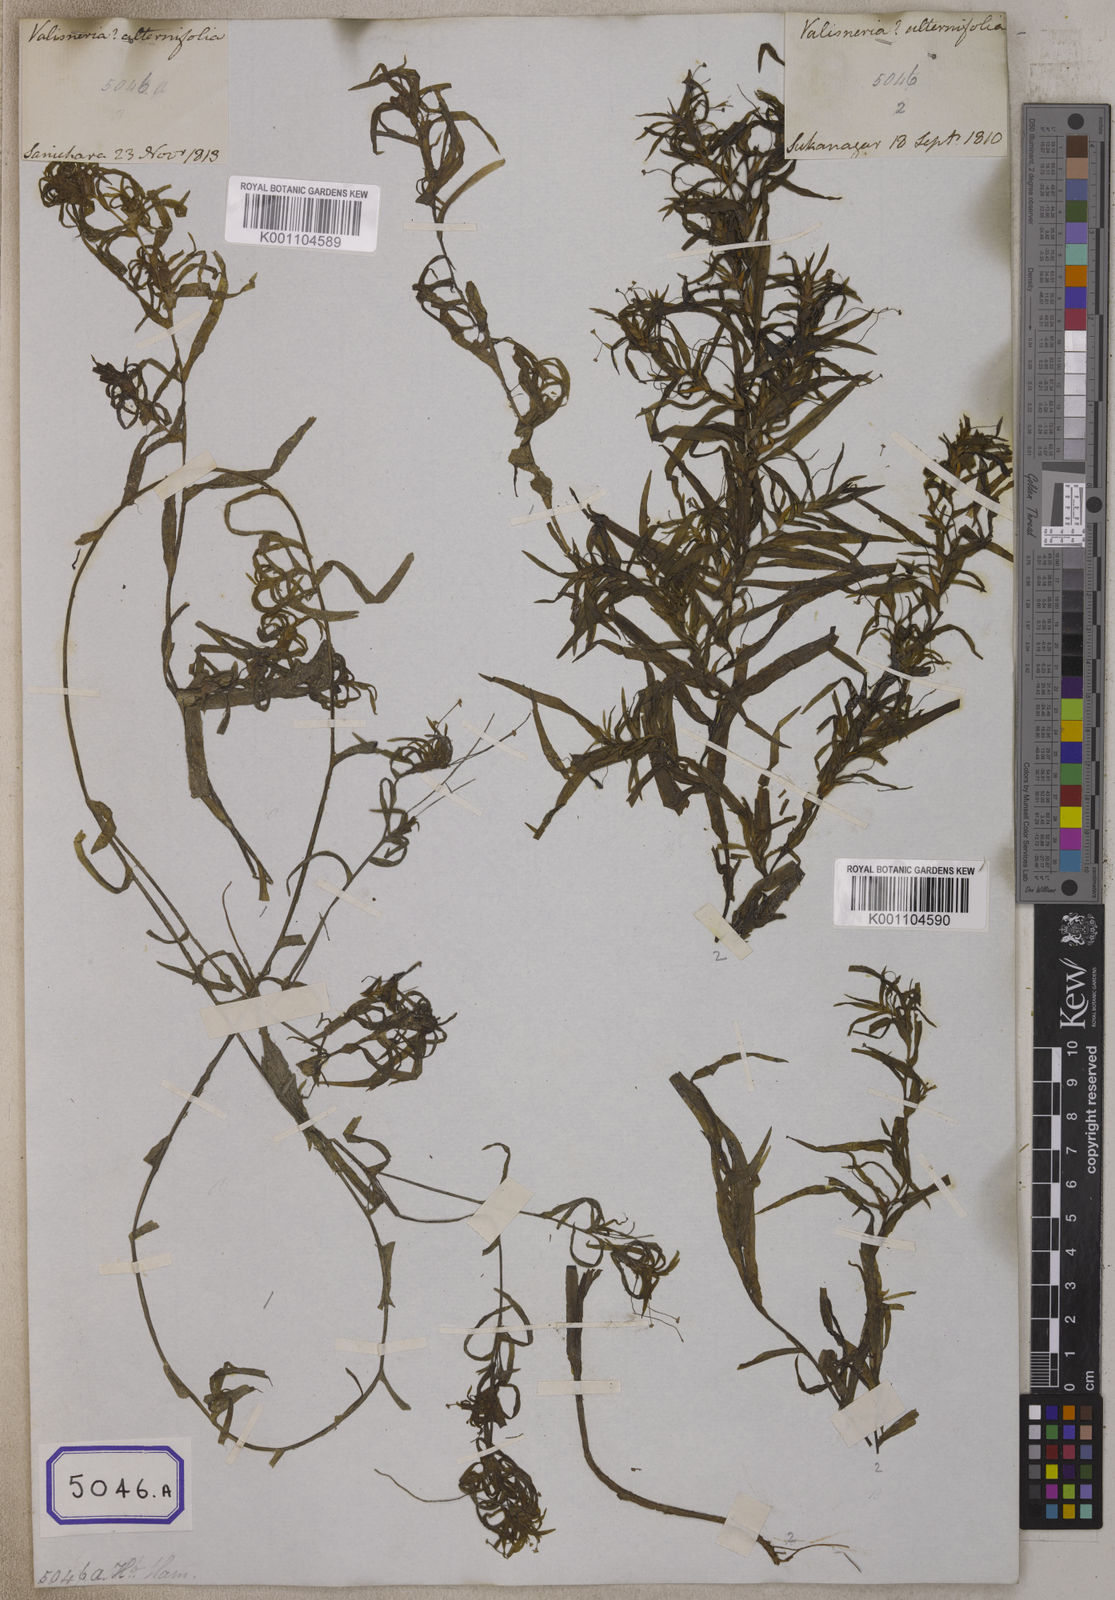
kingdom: Plantae
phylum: Tracheophyta
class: Liliopsida
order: Alismatales
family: Hydrocharitaceae
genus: Vallisneria
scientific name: Vallisneria
